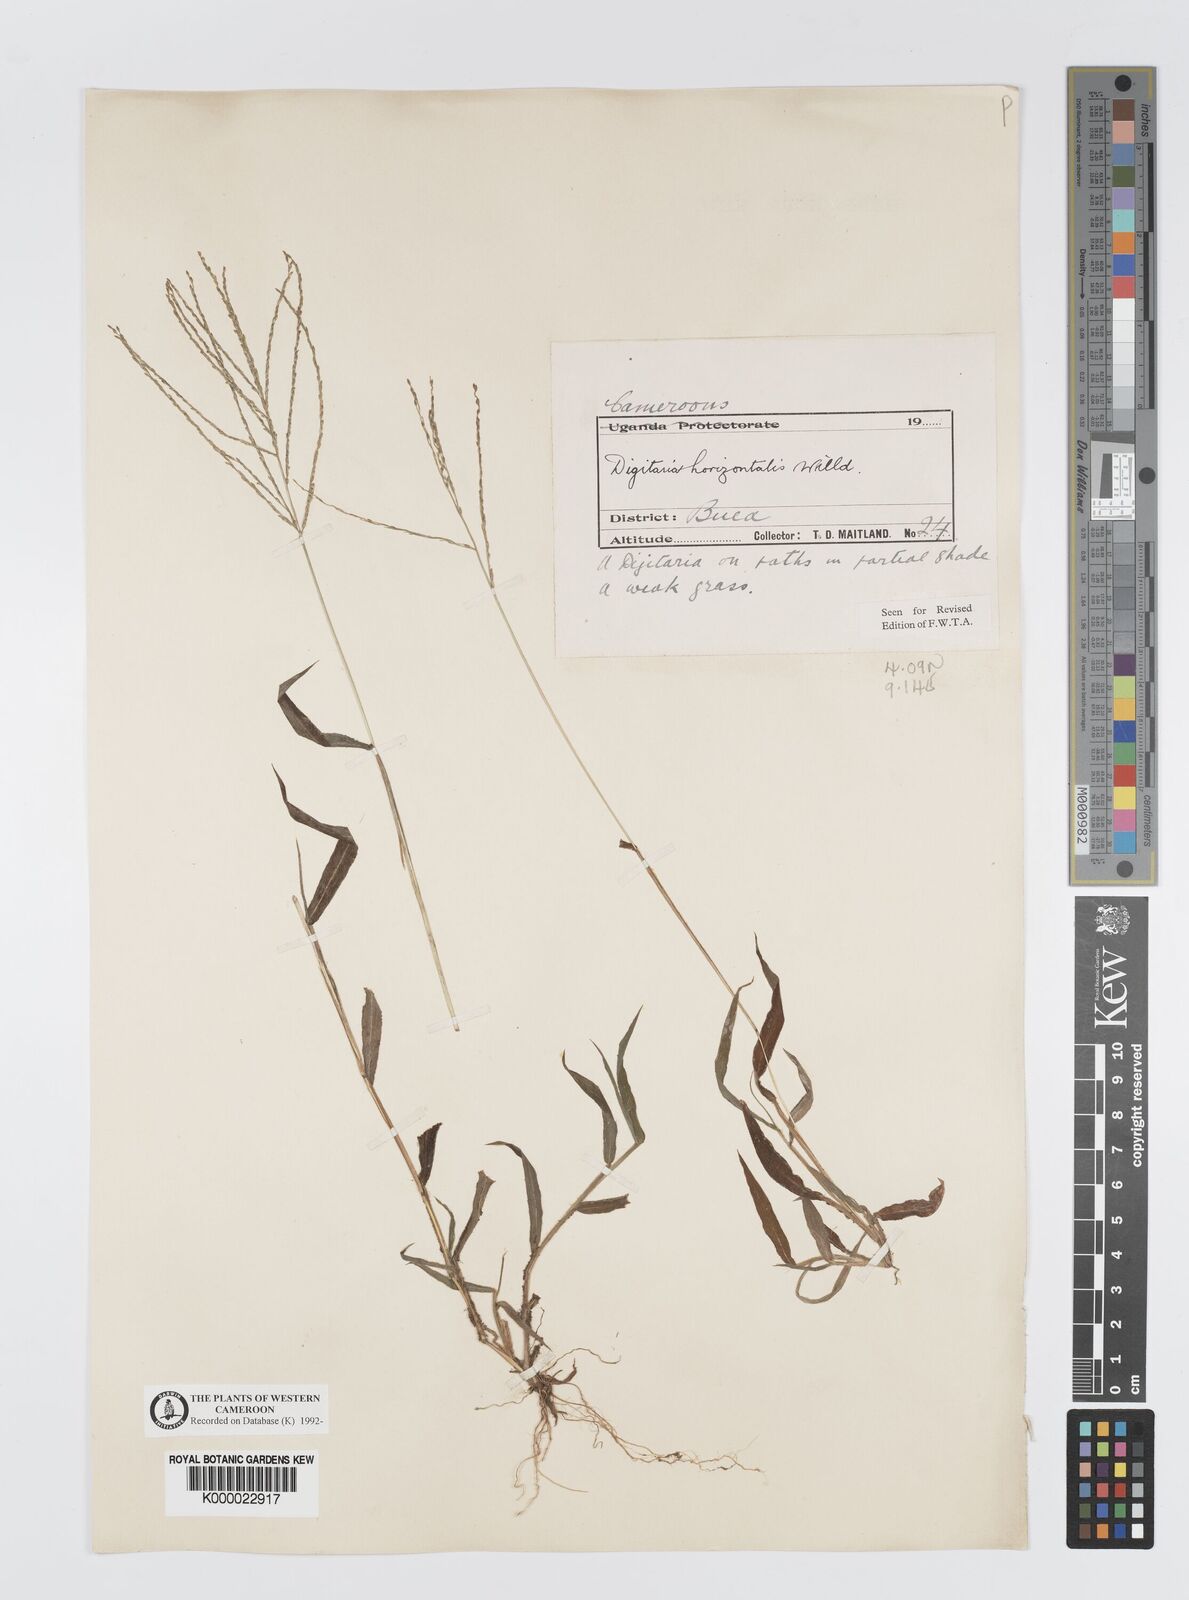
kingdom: Plantae
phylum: Tracheophyta
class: Liliopsida
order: Poales
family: Poaceae
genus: Digitaria
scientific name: Digitaria horizontalis
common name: Jamaican crabgrass
